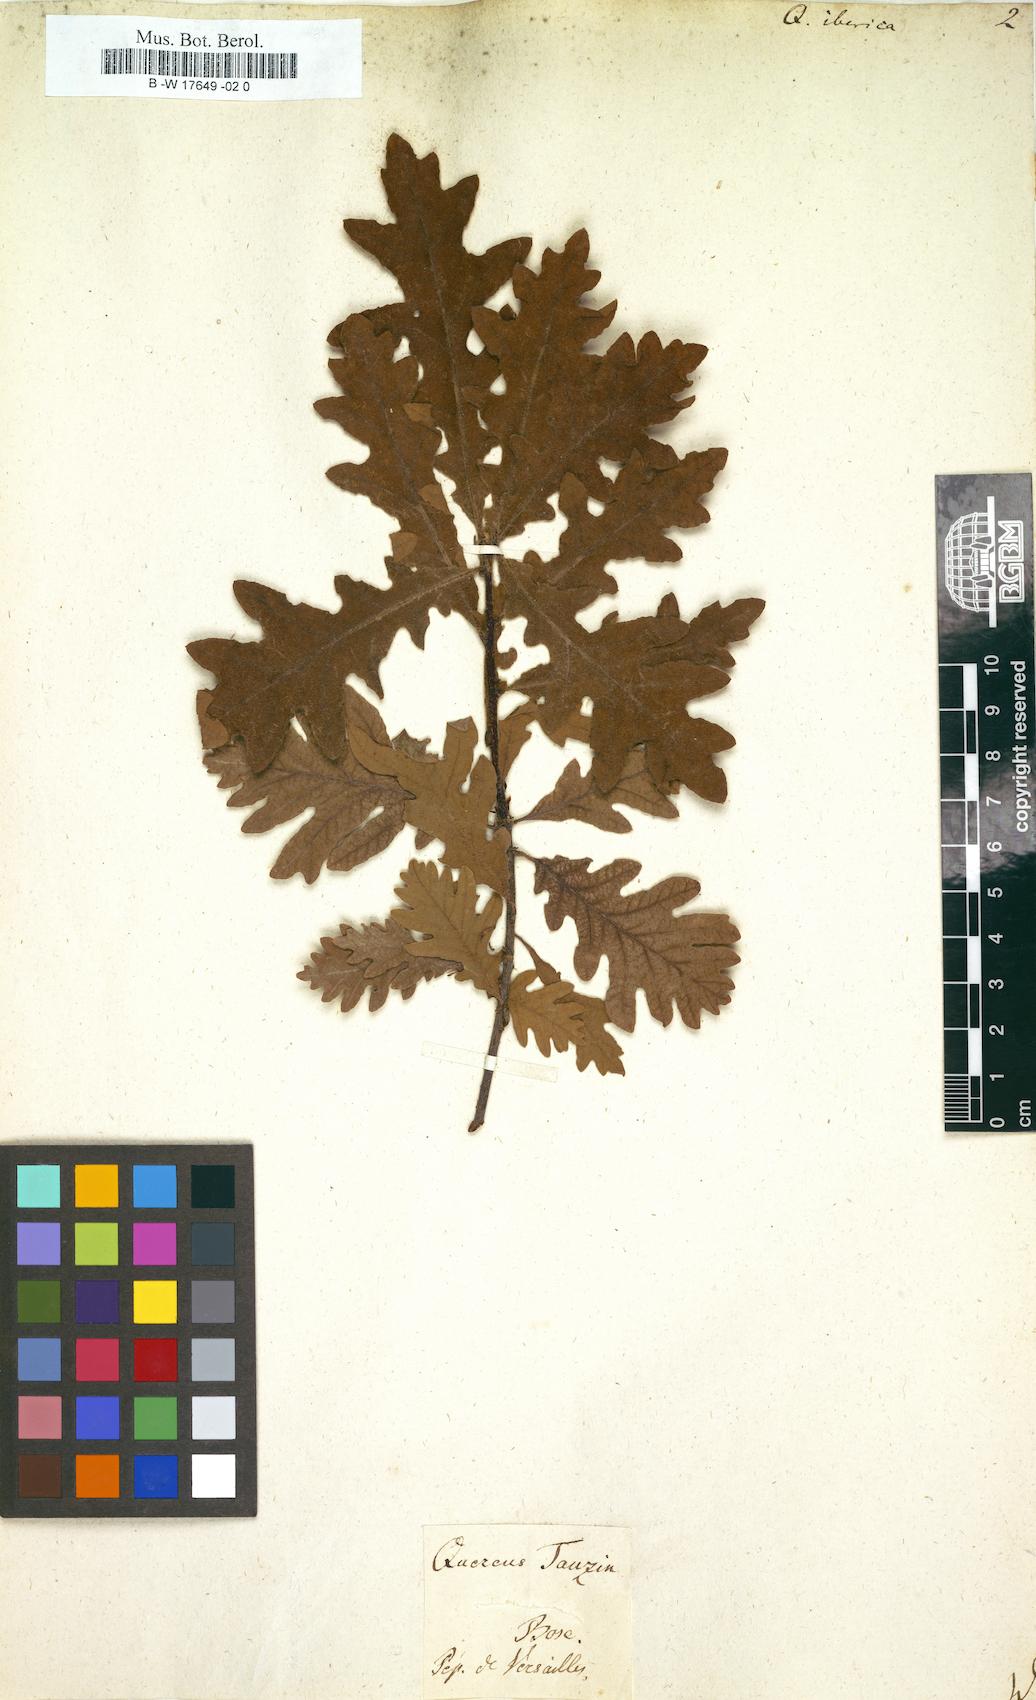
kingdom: Plantae
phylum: Tracheophyta
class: Magnoliopsida
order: Fagales
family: Fagaceae
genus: Quercus
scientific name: Quercus petraea
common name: Sessile oak
